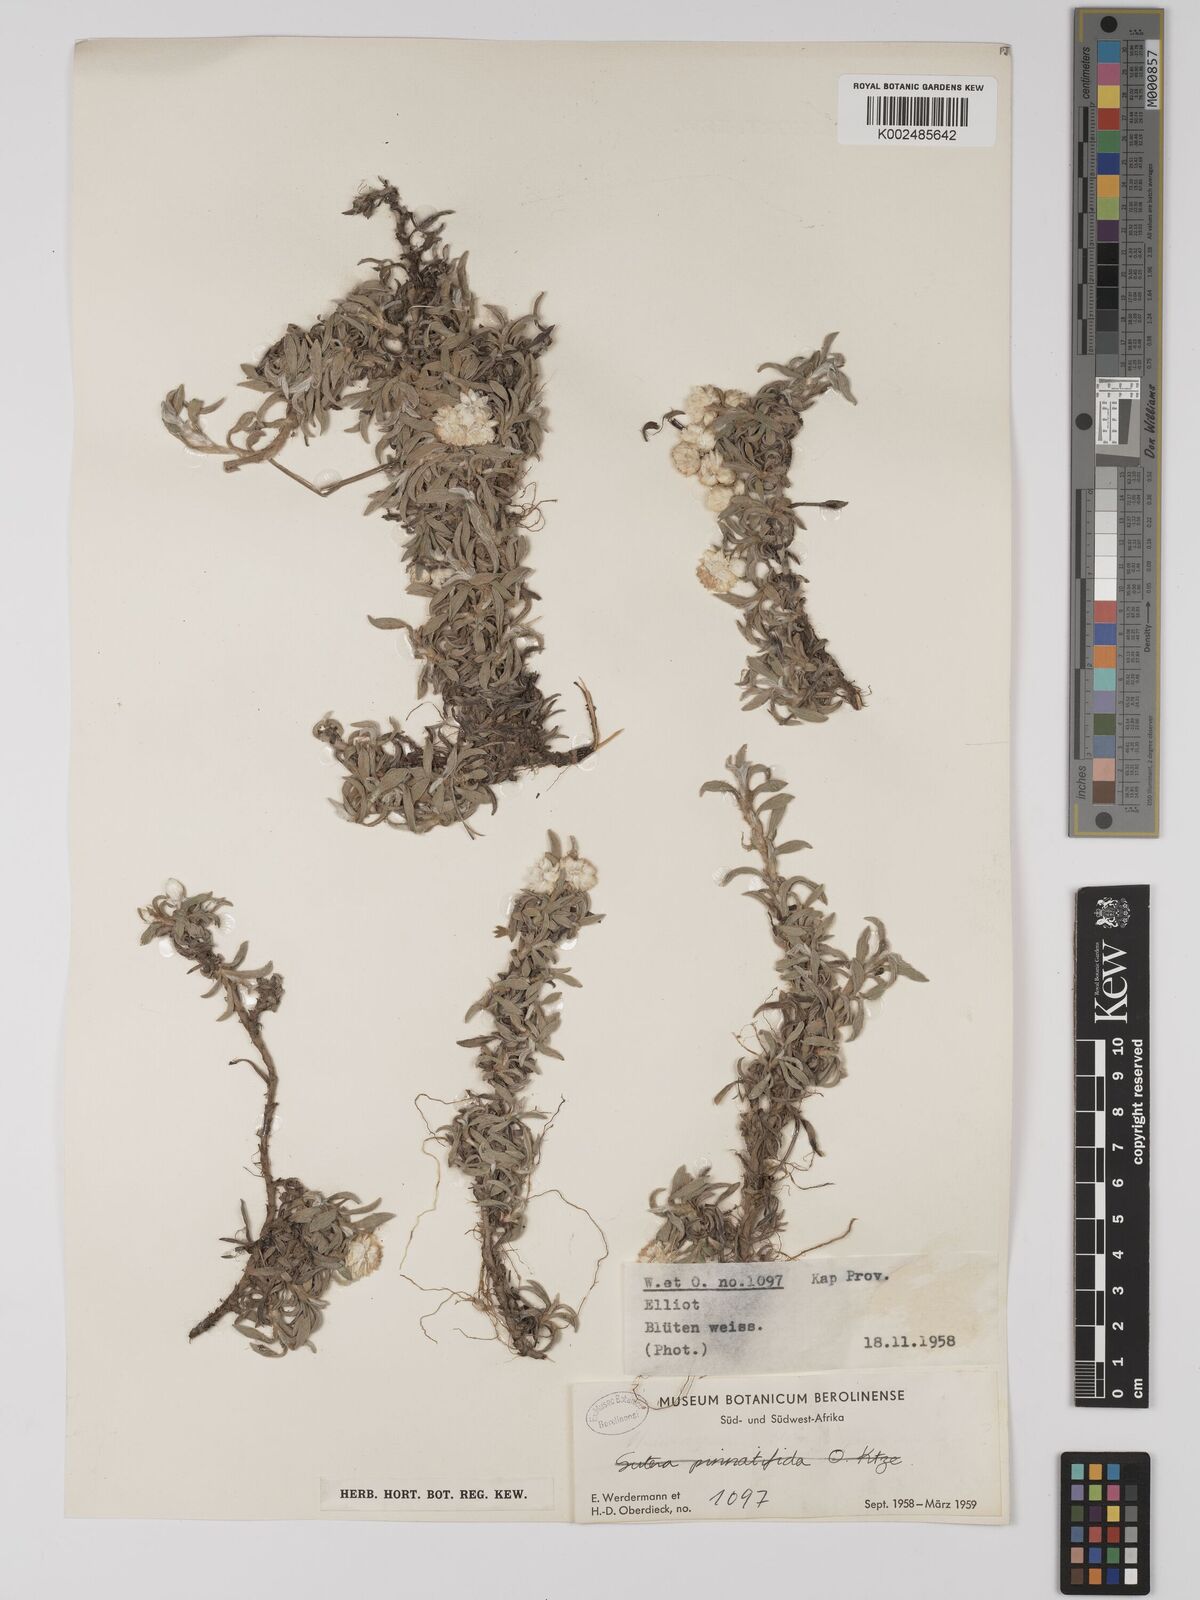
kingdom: Plantae
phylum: Tracheophyta
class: Magnoliopsida
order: Asterales
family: Asteraceae
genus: Helichrysum
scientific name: Helichrysum chionosphaerum
